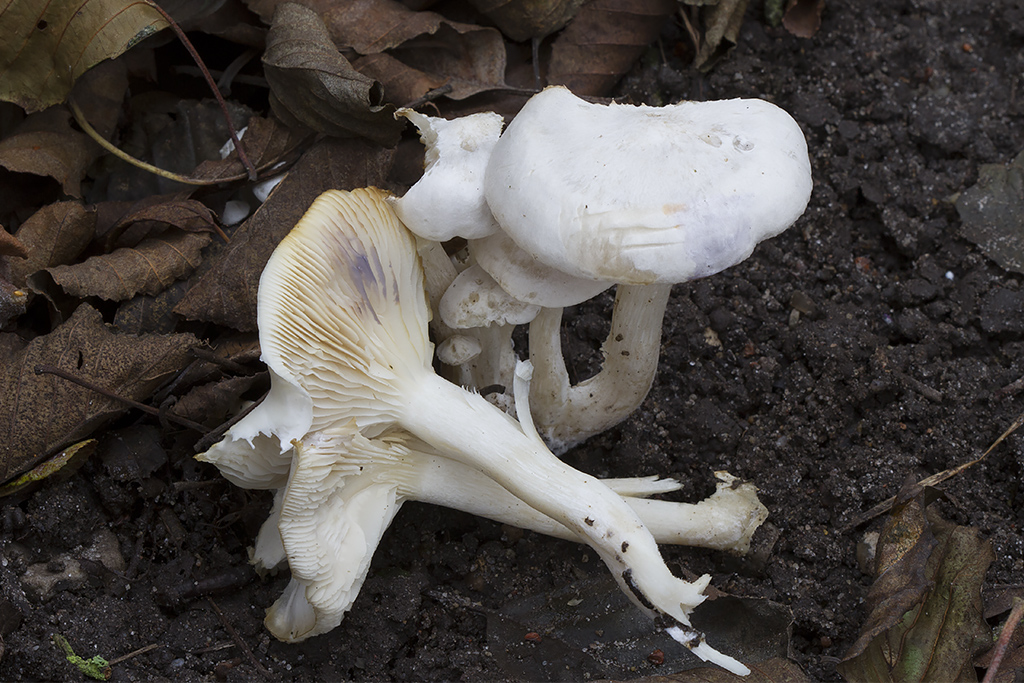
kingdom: Fungi
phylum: Basidiomycota
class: Agaricomycetes
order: Agaricales
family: Tricholomataceae
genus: Leucocybe
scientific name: Leucocybe connata
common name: knippe-tragthat
